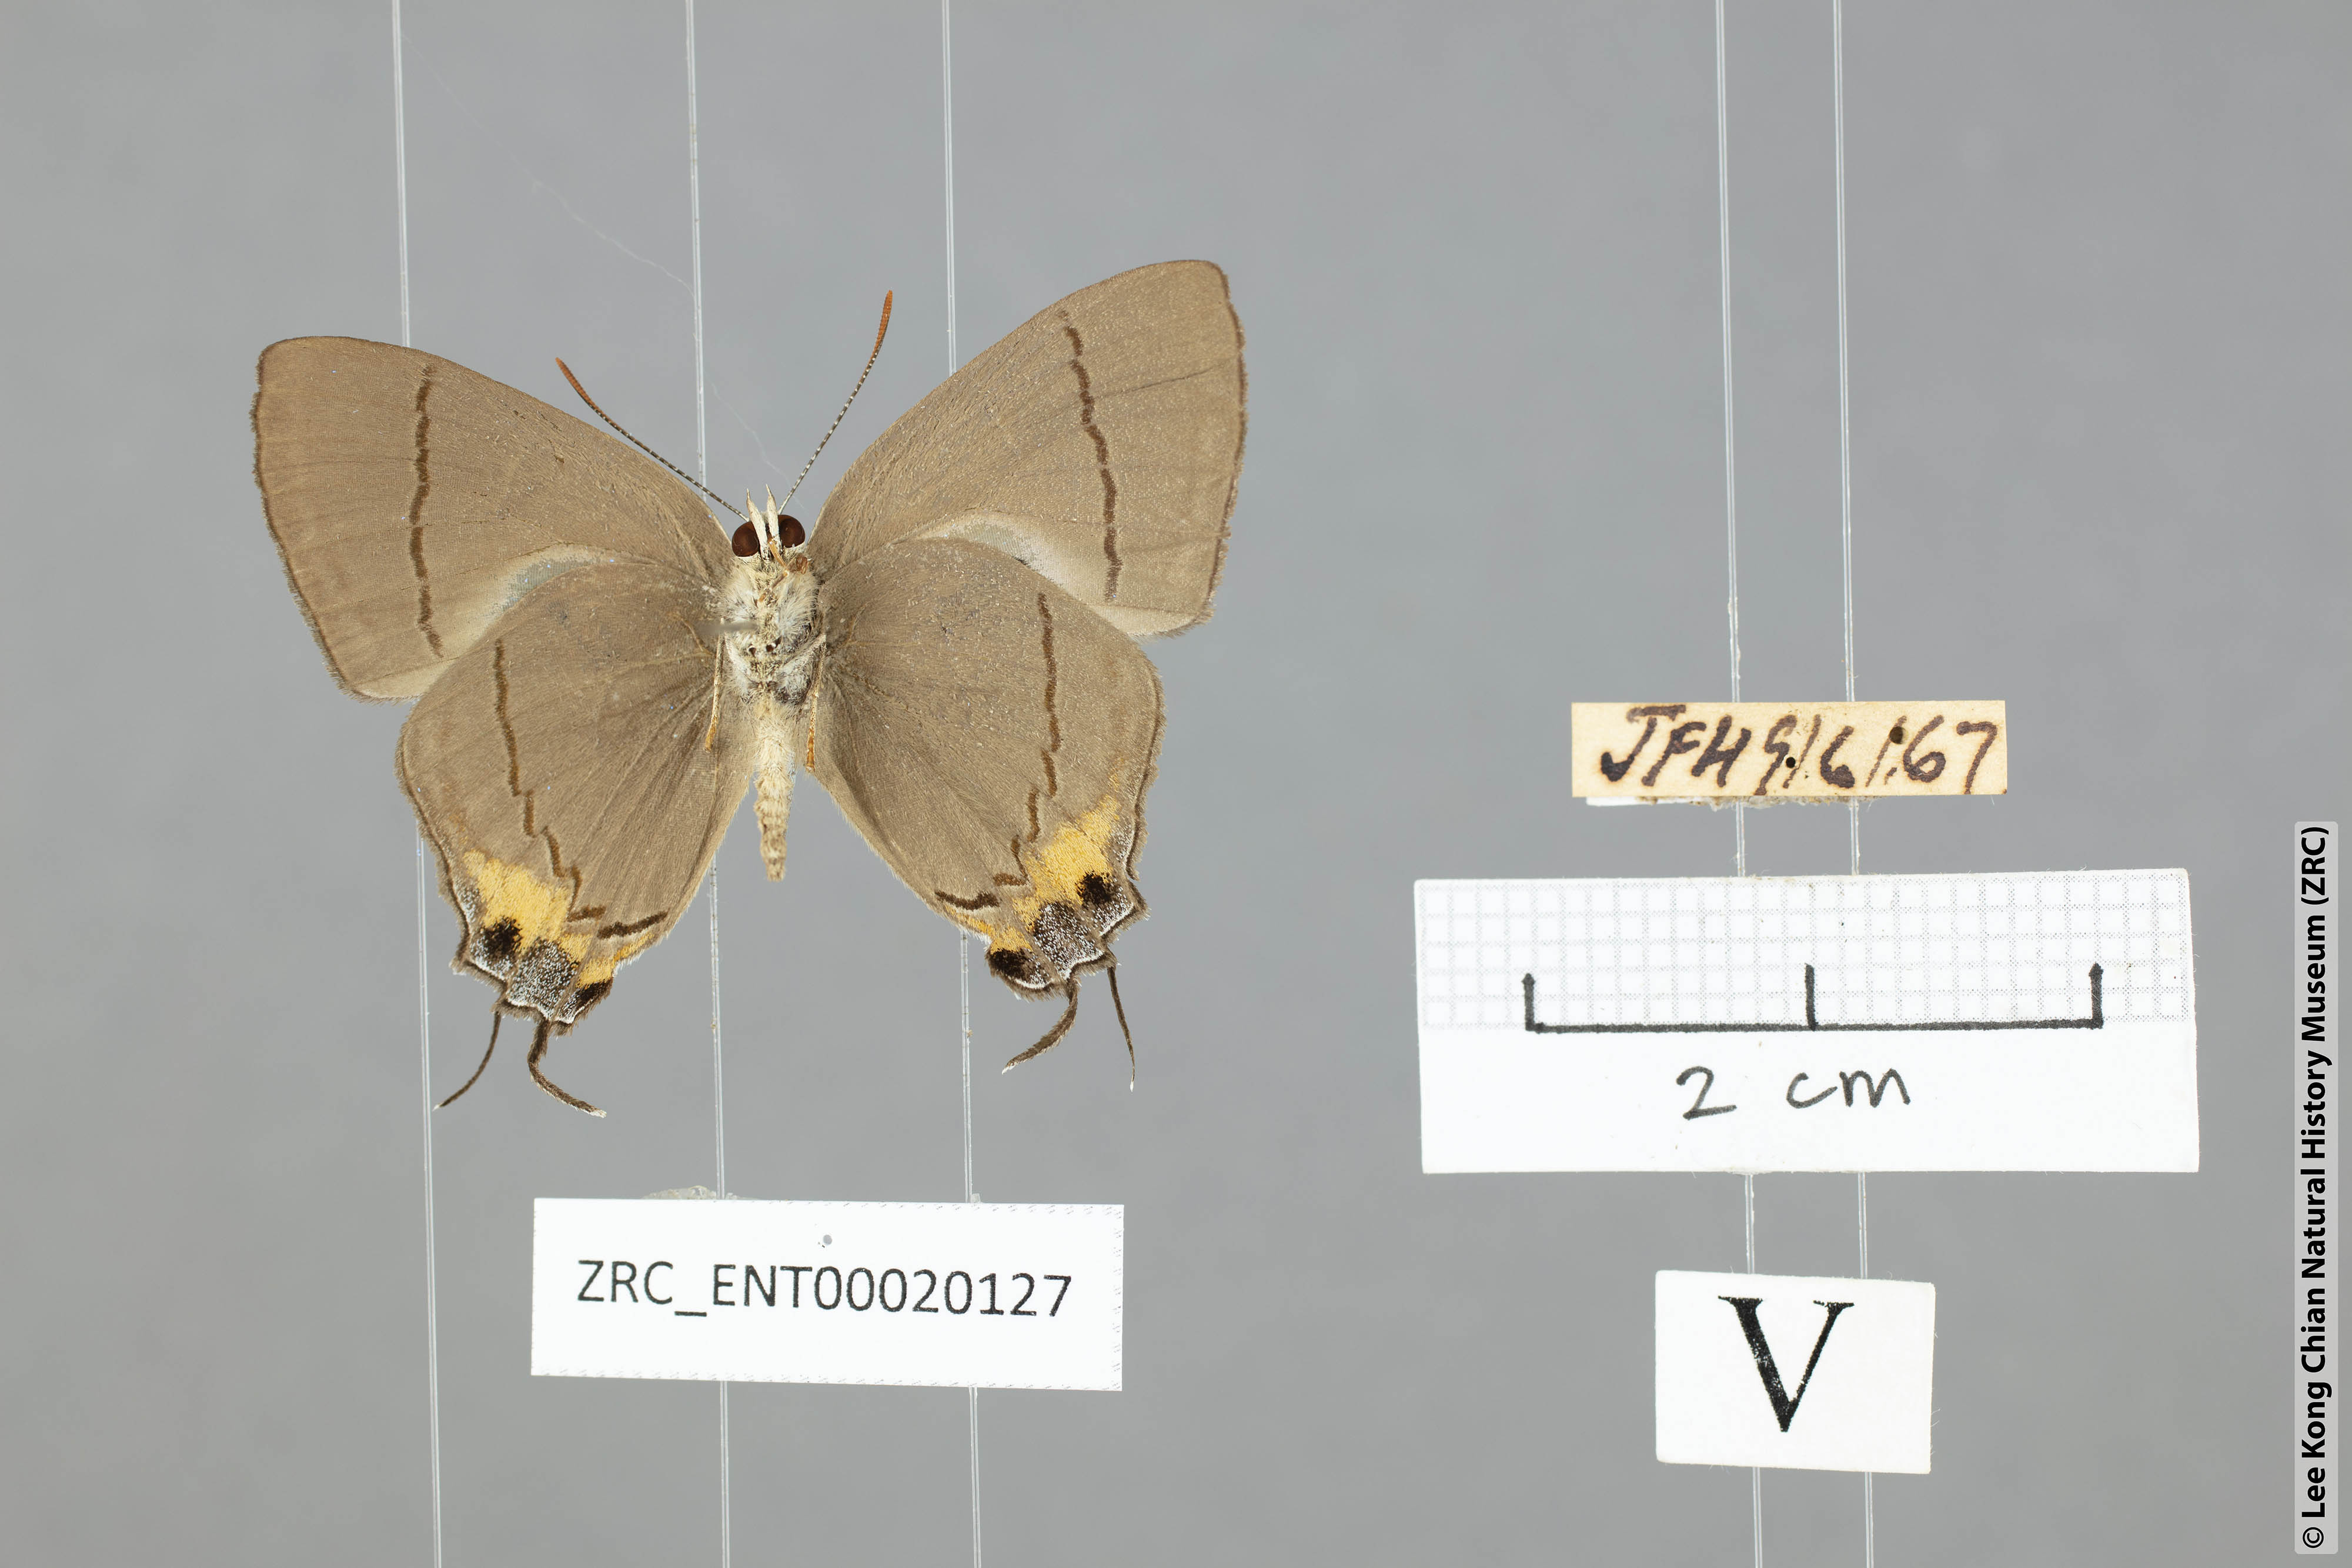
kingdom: Animalia
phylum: Arthropoda
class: Insecta
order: Lepidoptera
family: Lycaenidae
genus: Creon
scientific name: Creon cleobis
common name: Broad-tail royal
